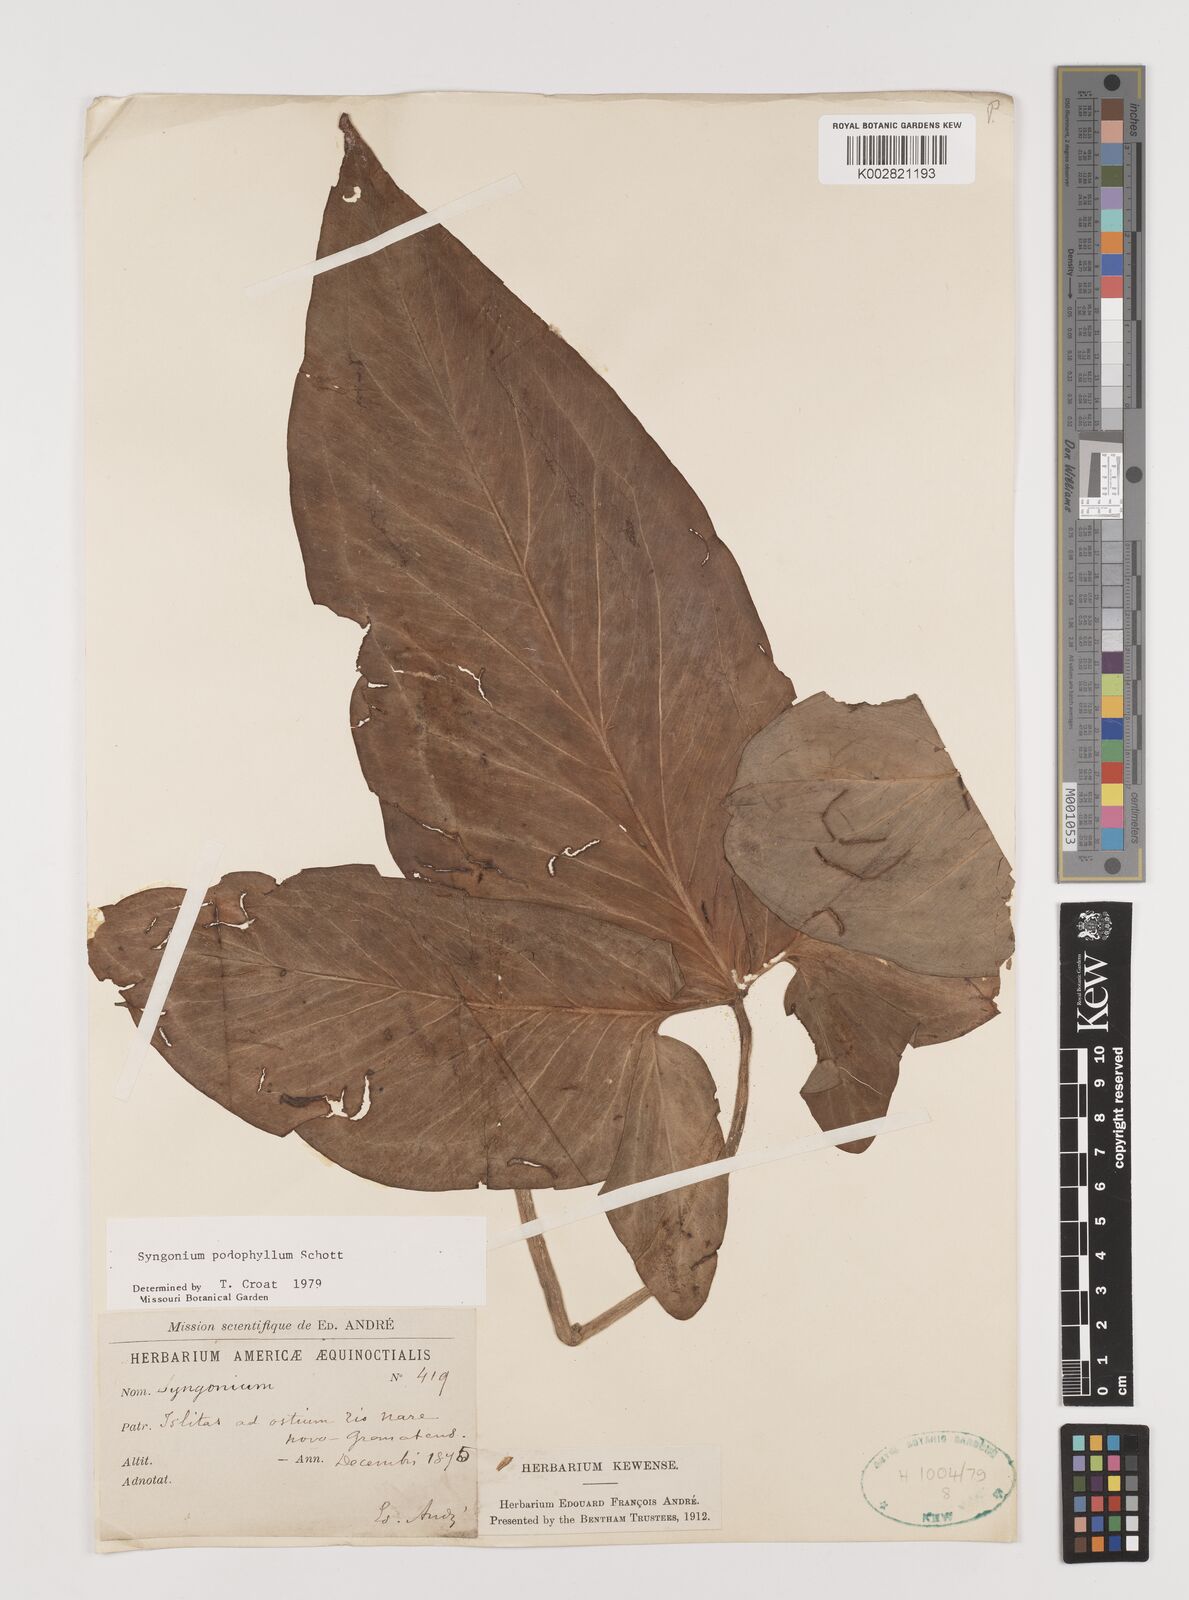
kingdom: Plantae
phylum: Tracheophyta
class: Liliopsida
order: Alismatales
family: Araceae
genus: Syngonium
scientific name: Syngonium podophyllum
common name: American evergreen
